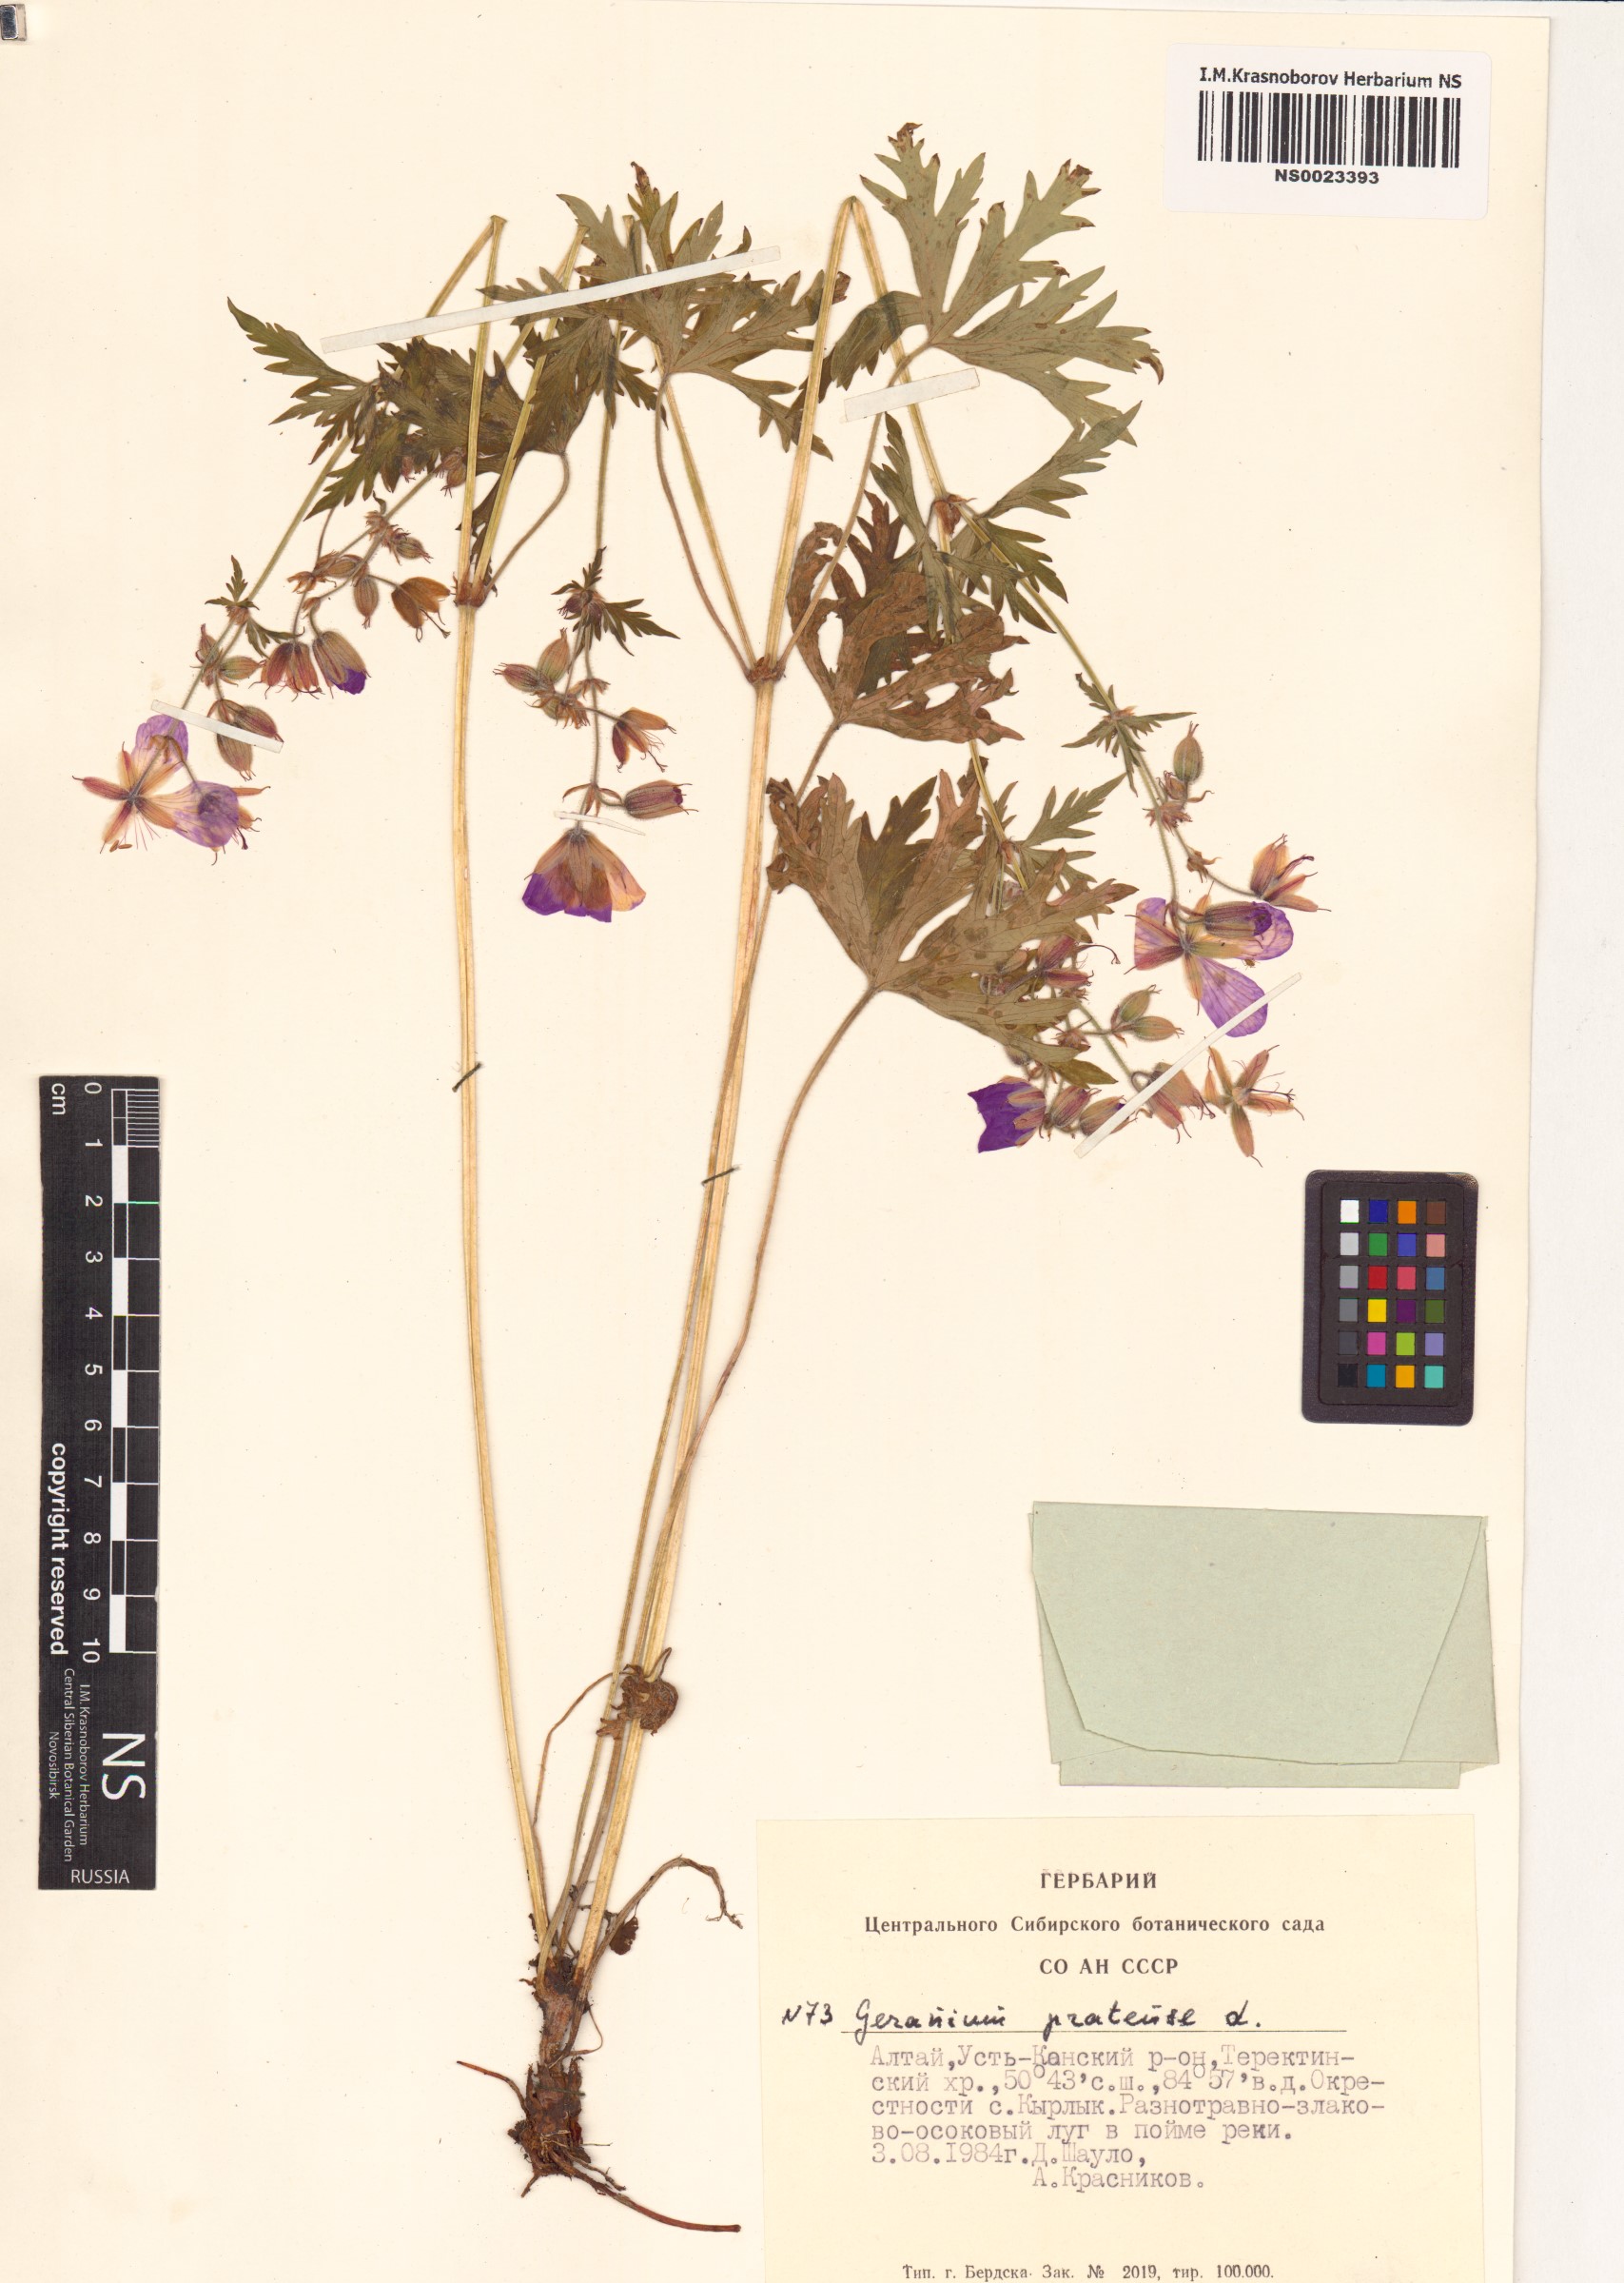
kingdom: Plantae
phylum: Tracheophyta
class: Magnoliopsida
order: Geraniales
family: Geraniaceae
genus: Geranium
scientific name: Geranium pratense
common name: Meadow crane's-bill
